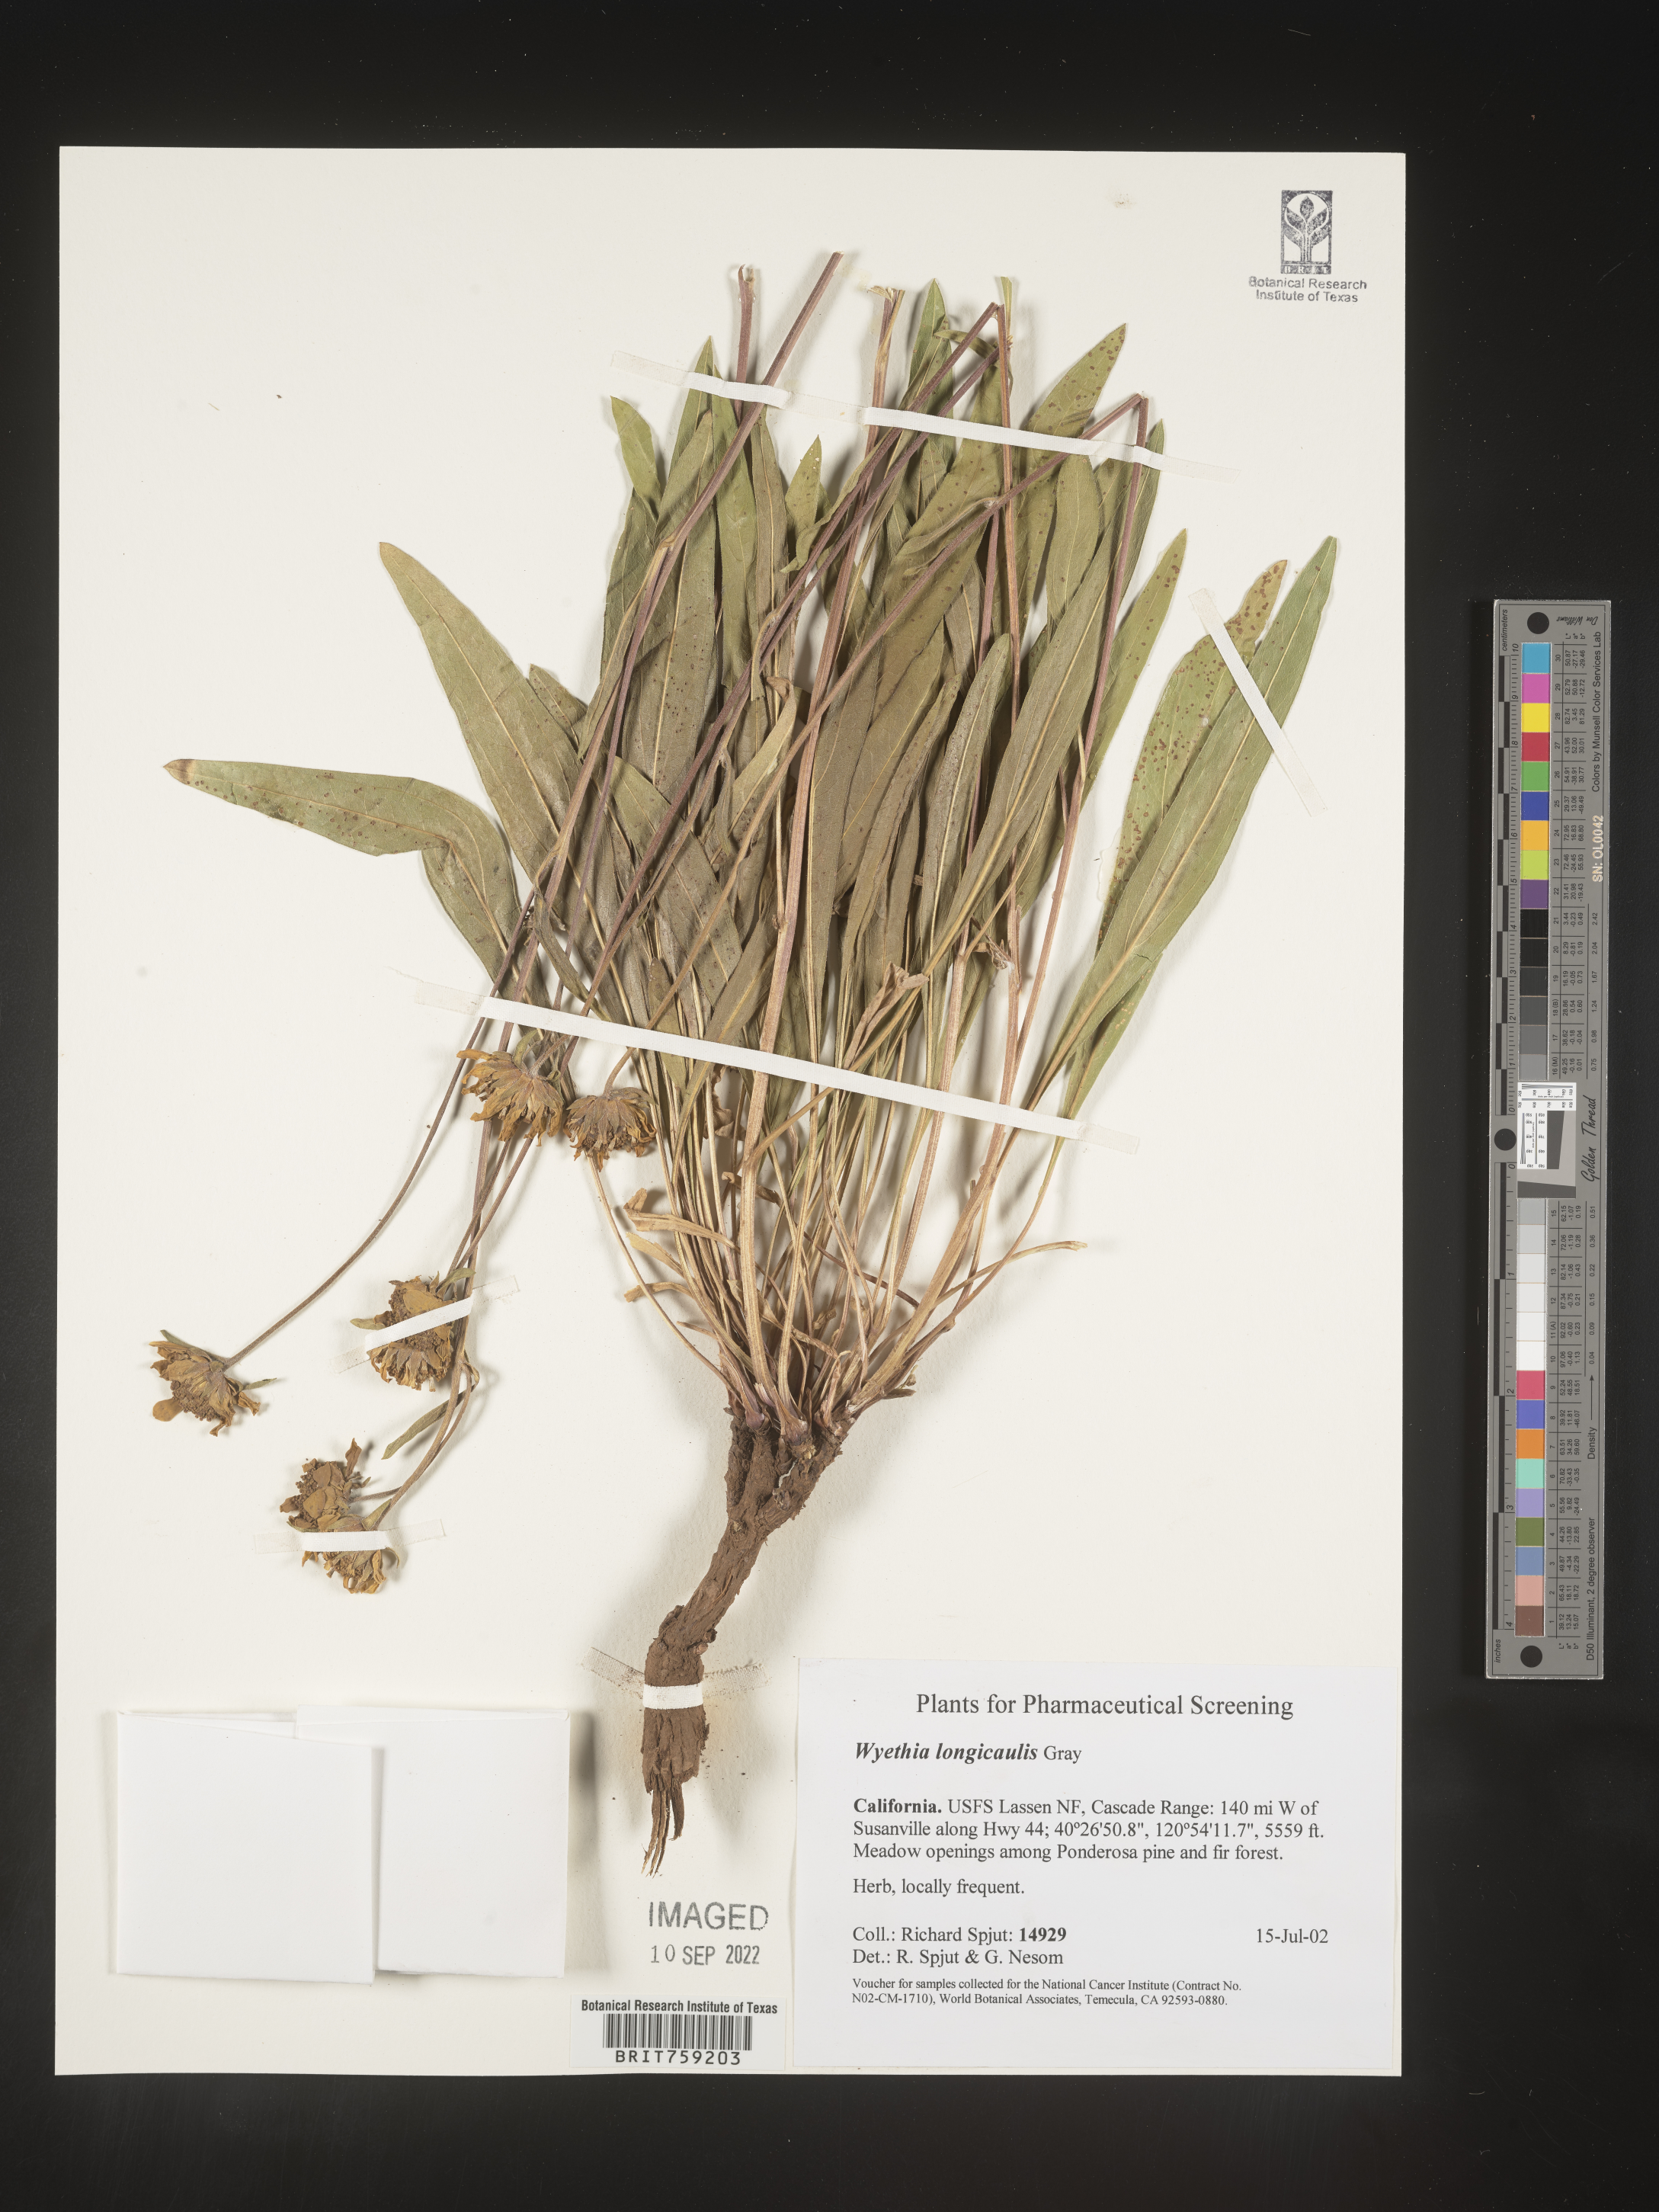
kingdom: Plantae
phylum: Tracheophyta
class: Magnoliopsida
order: Asterales
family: Asteraceae
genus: Wyethia
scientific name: Wyethia longicaulis
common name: Humboldt county wyethia
